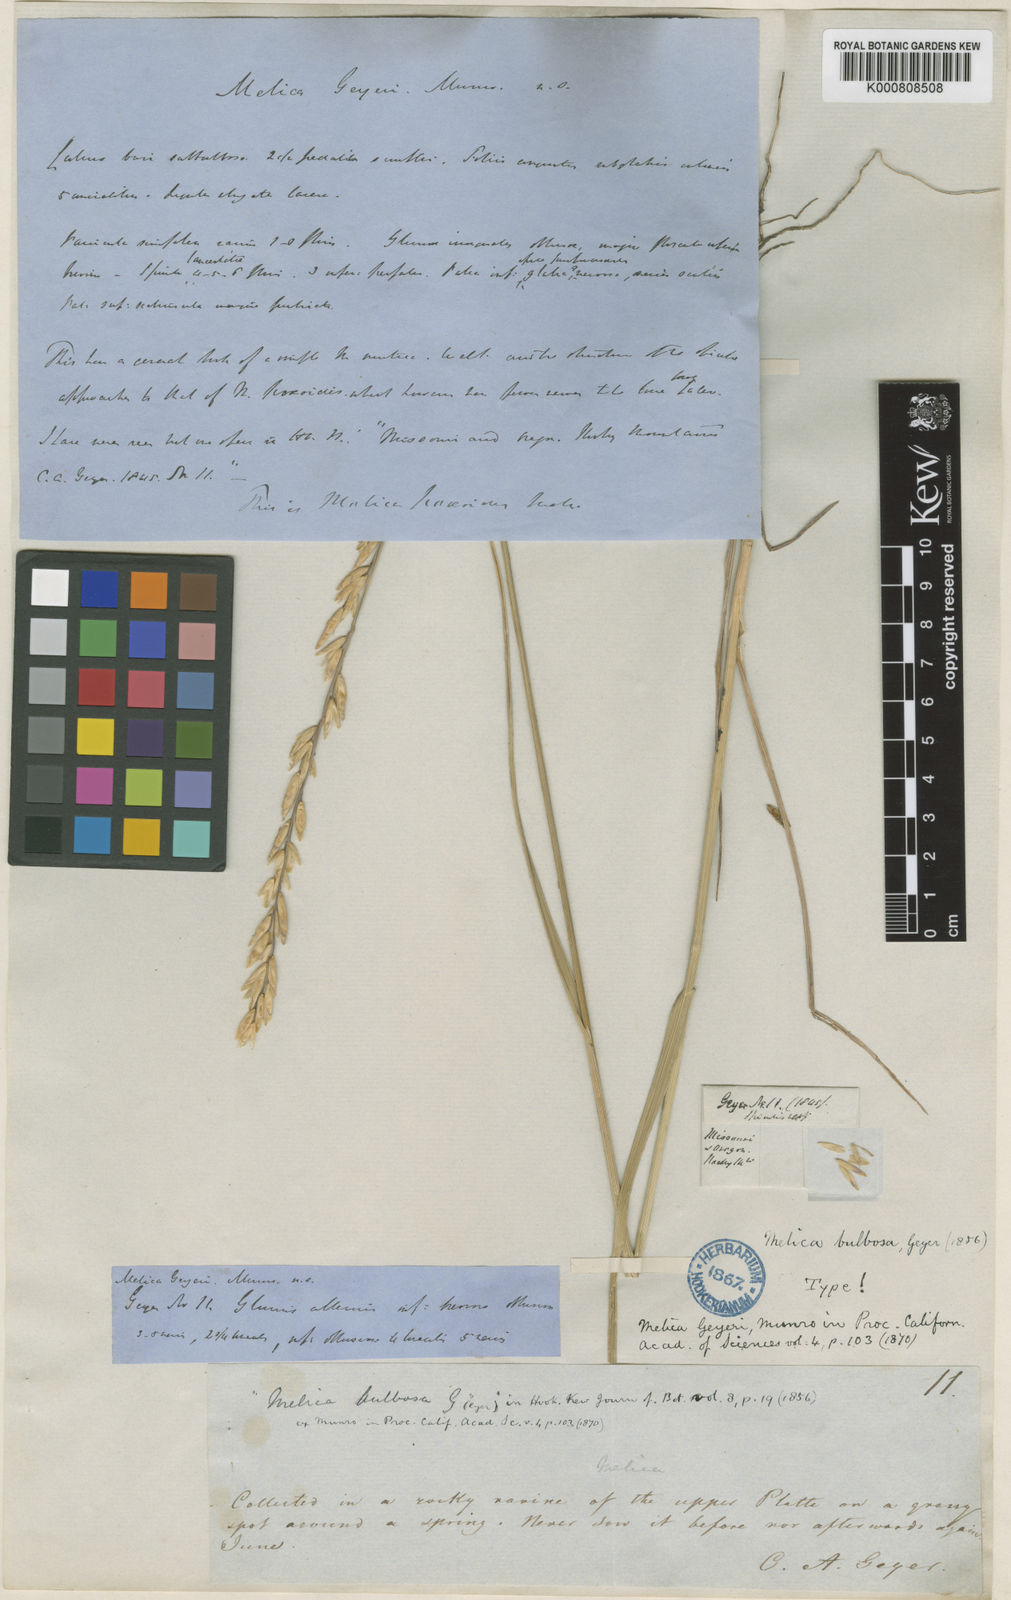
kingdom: Plantae
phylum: Tracheophyta
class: Liliopsida
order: Poales
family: Poaceae
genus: Melica
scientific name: Melica bulbosa
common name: Bulbous oniongrass
